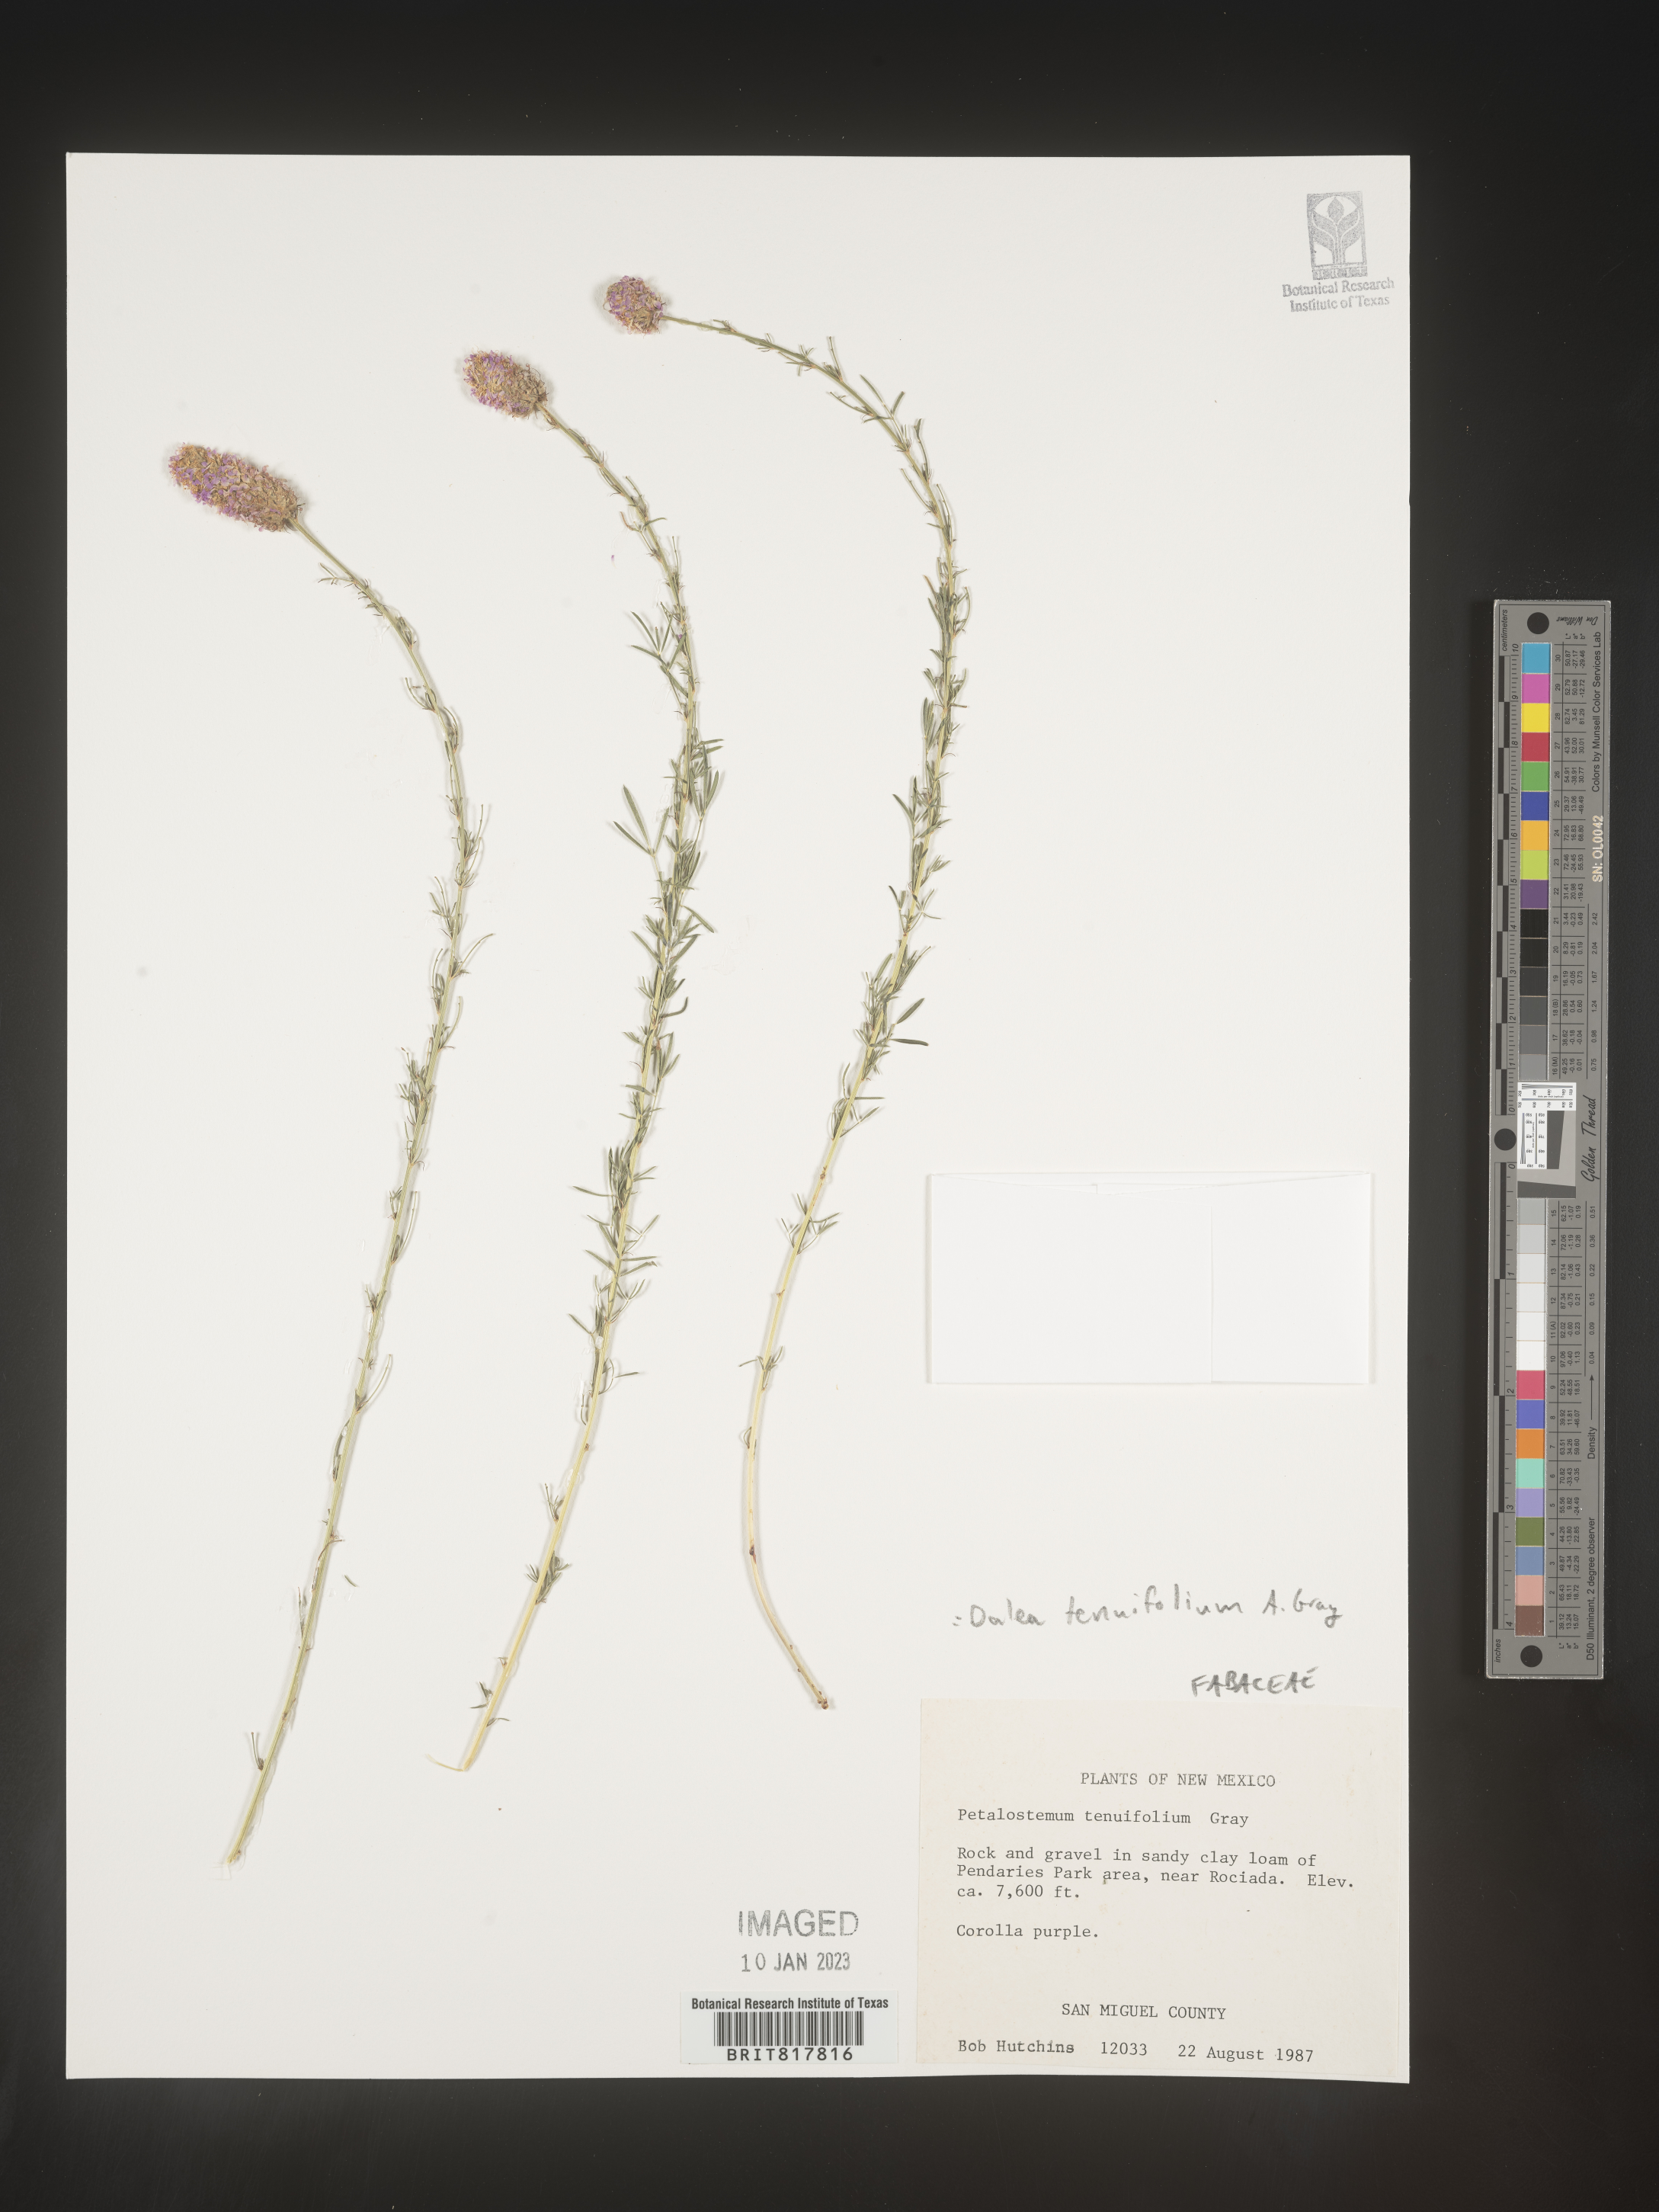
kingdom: Plantae
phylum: Tracheophyta
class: Magnoliopsida
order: Fabales
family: Fabaceae
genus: Dalea
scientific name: Dalea
